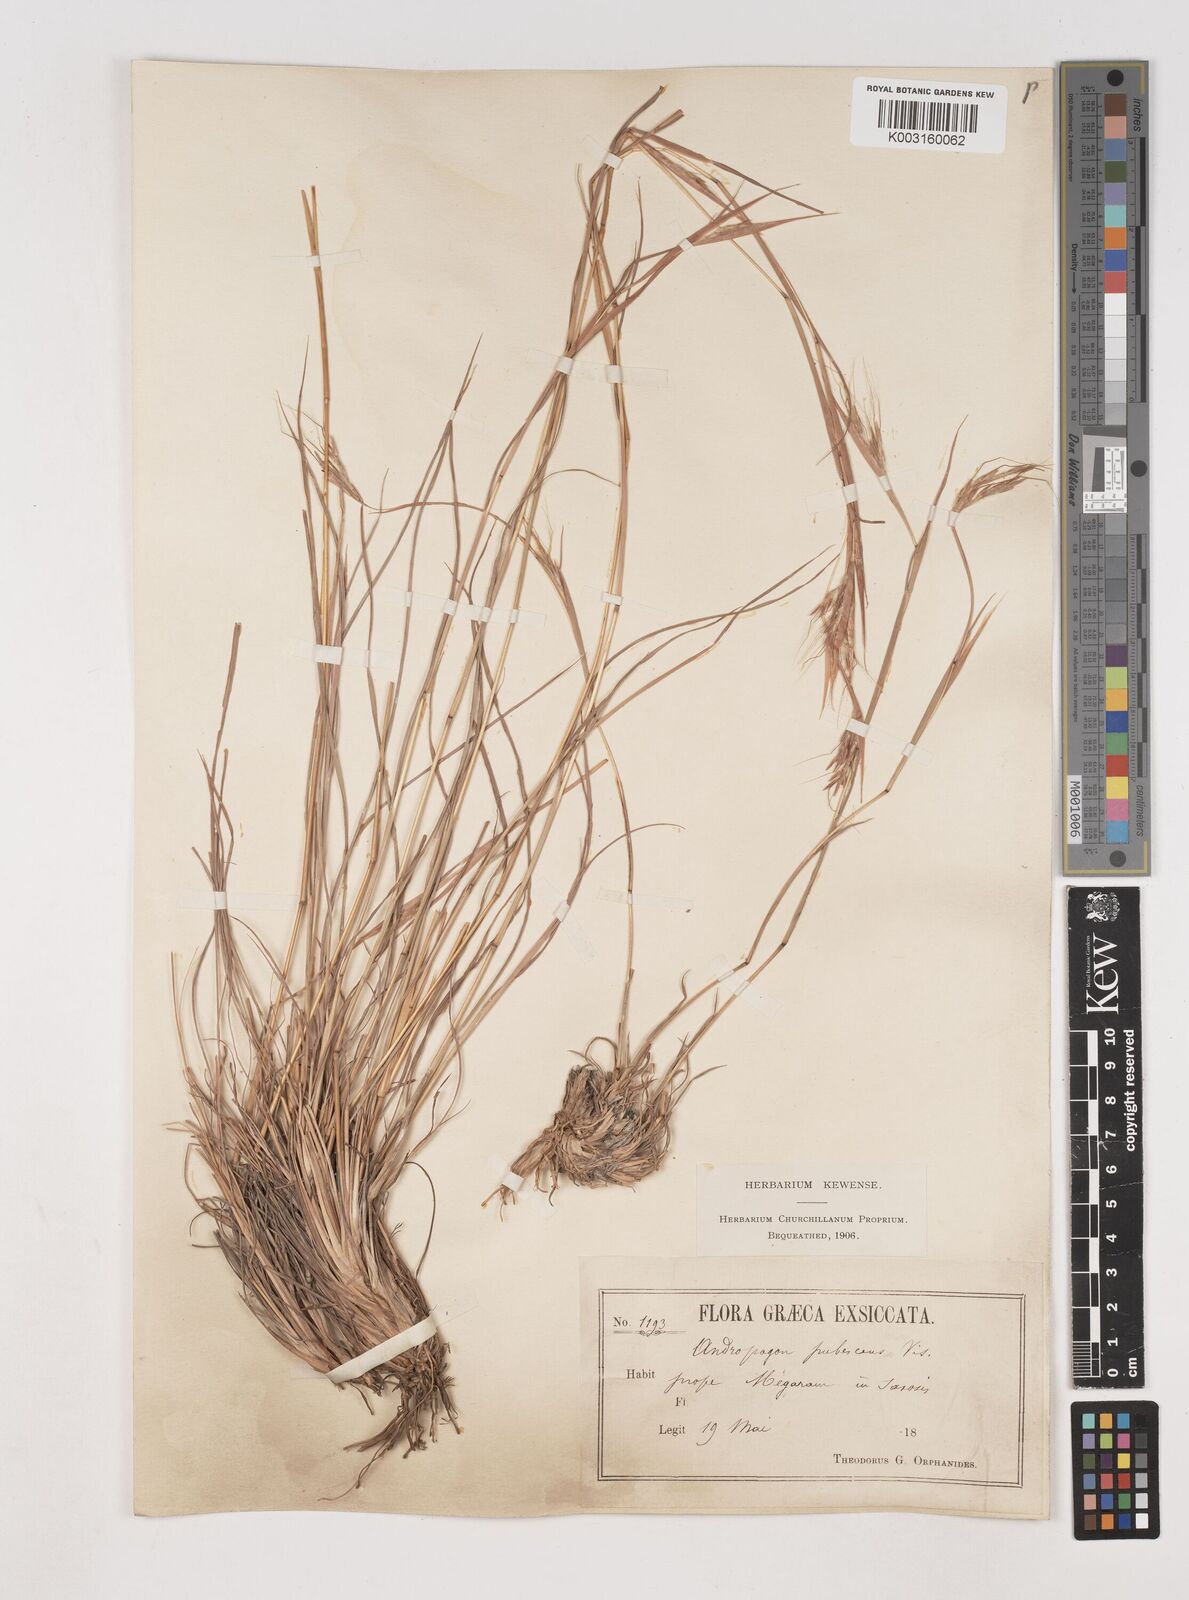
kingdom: Plantae
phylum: Tracheophyta
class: Liliopsida
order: Poales
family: Poaceae
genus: Hyparrhenia
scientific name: Hyparrhenia hirta
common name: Thatching grass
